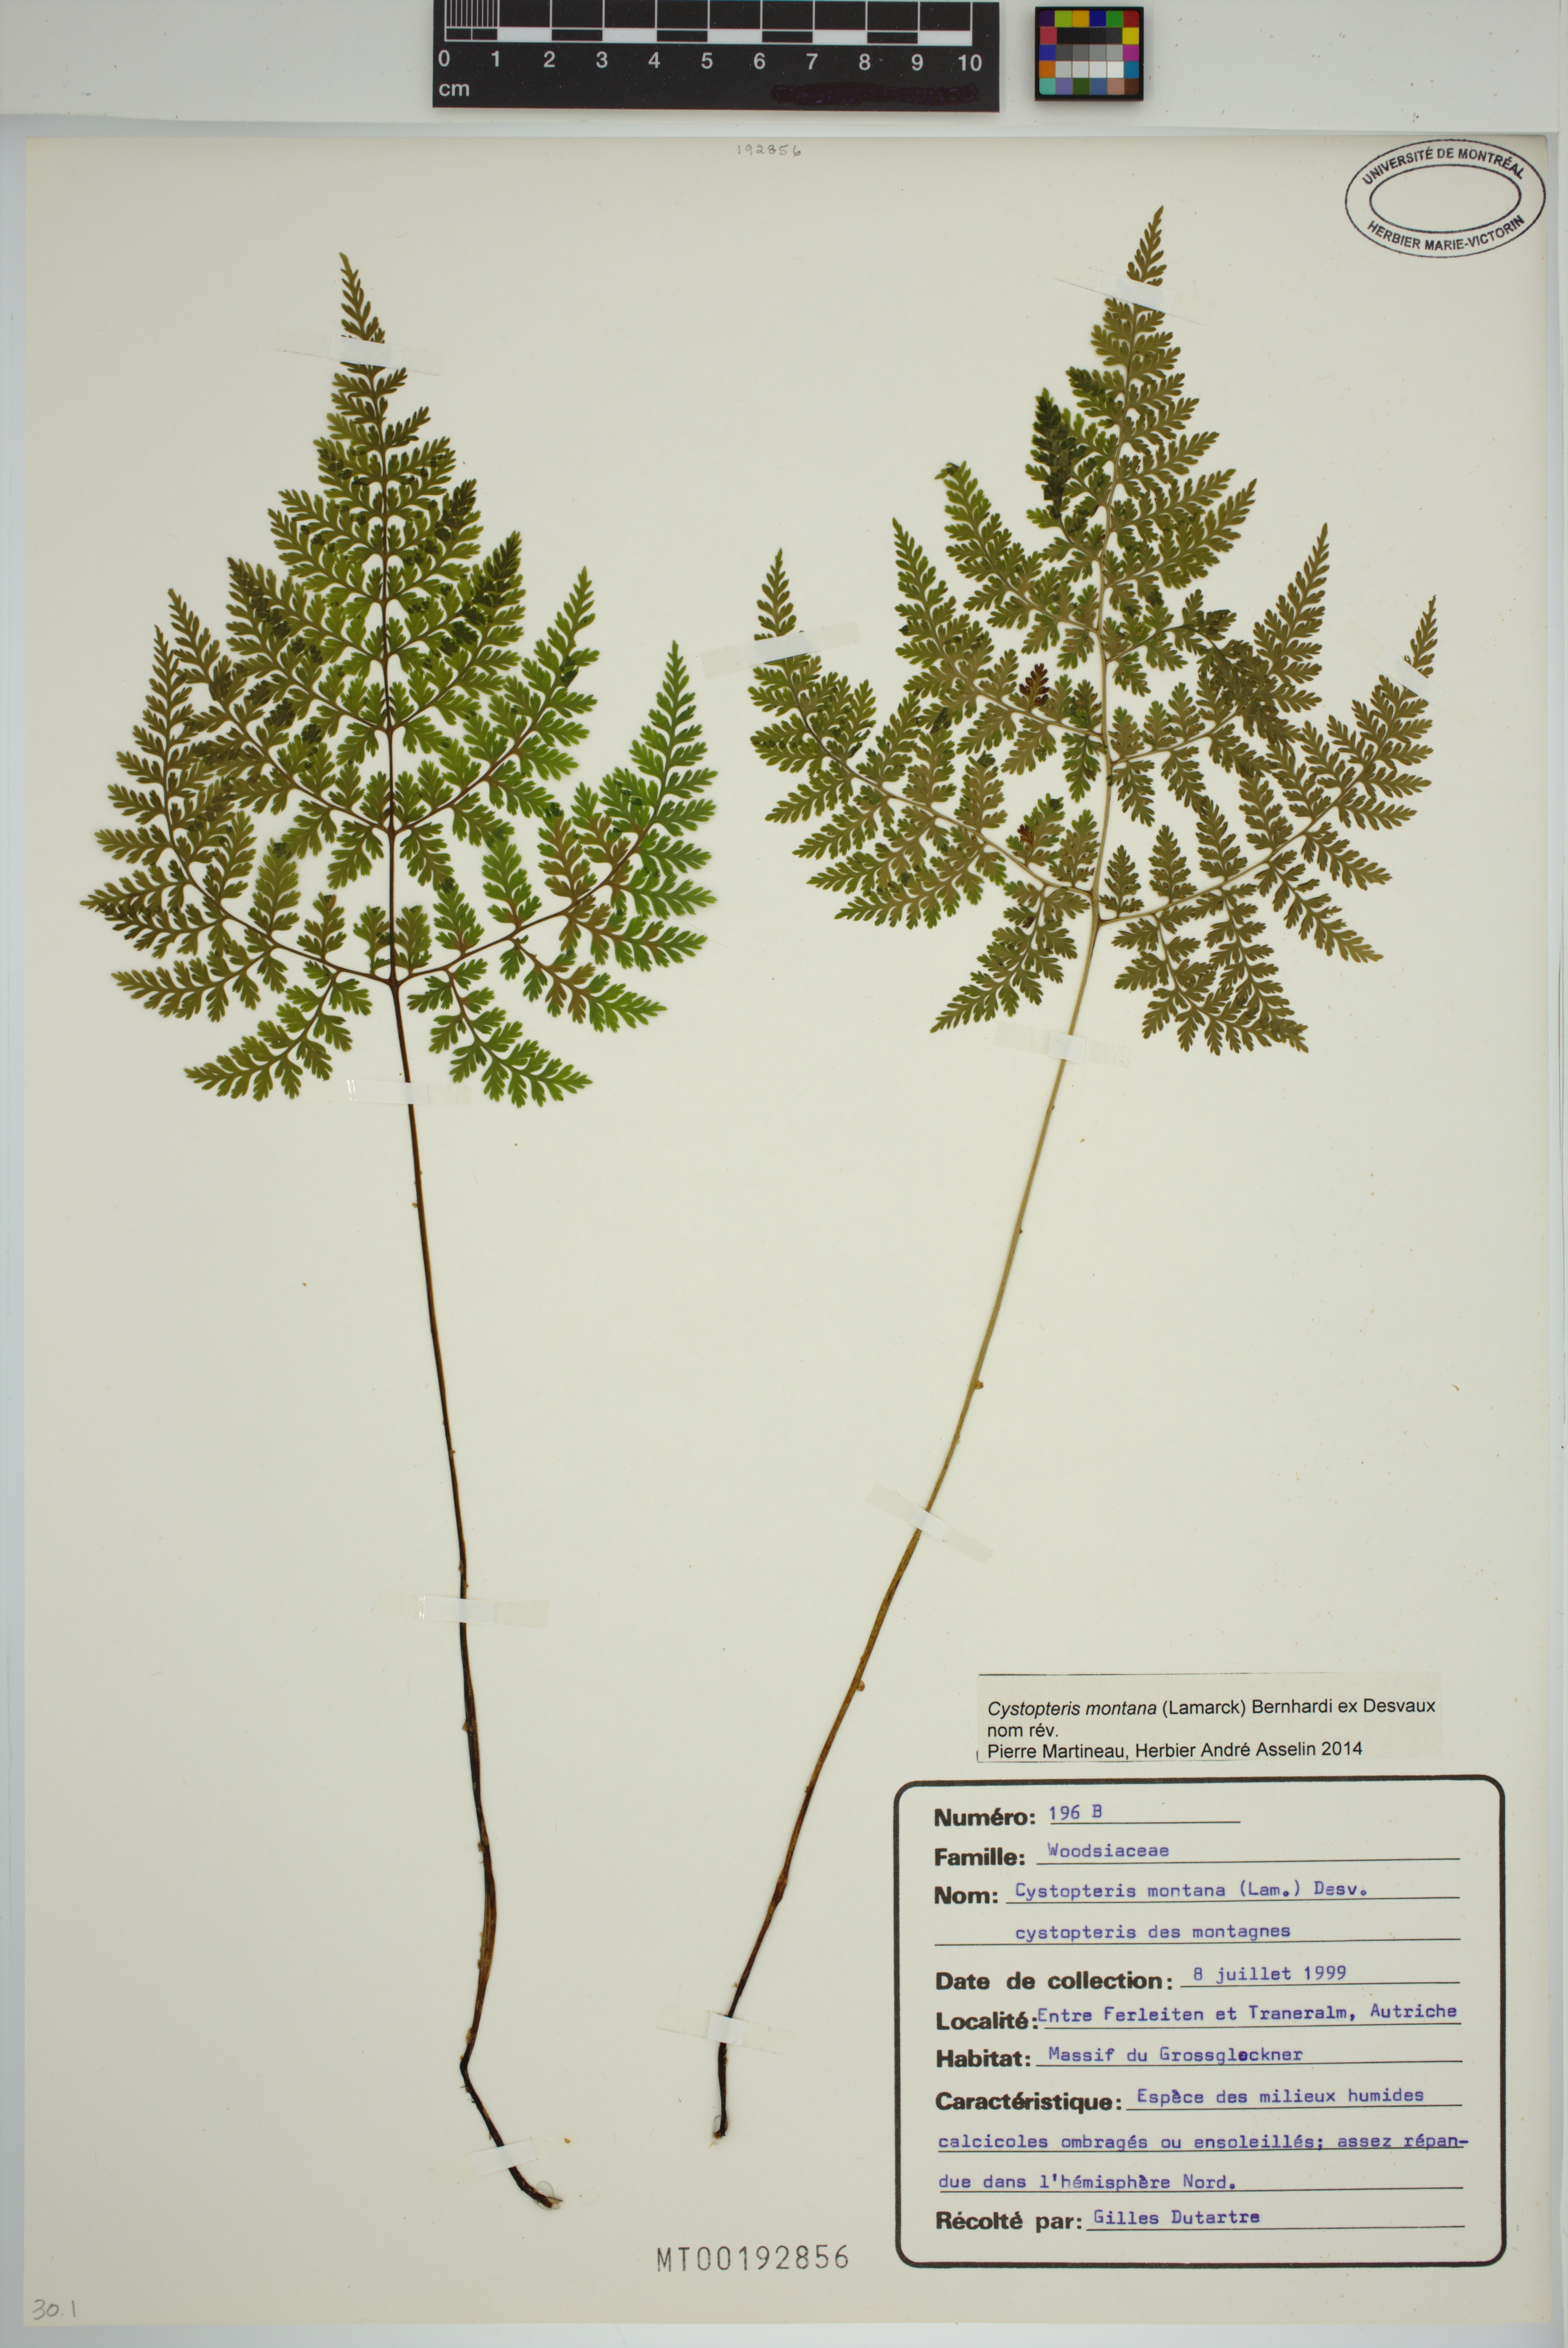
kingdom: Plantae
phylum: Tracheophyta
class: Polypodiopsida
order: Polypodiales
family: Cystopteridaceae
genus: Cystopteris
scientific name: Cystopteris montana
